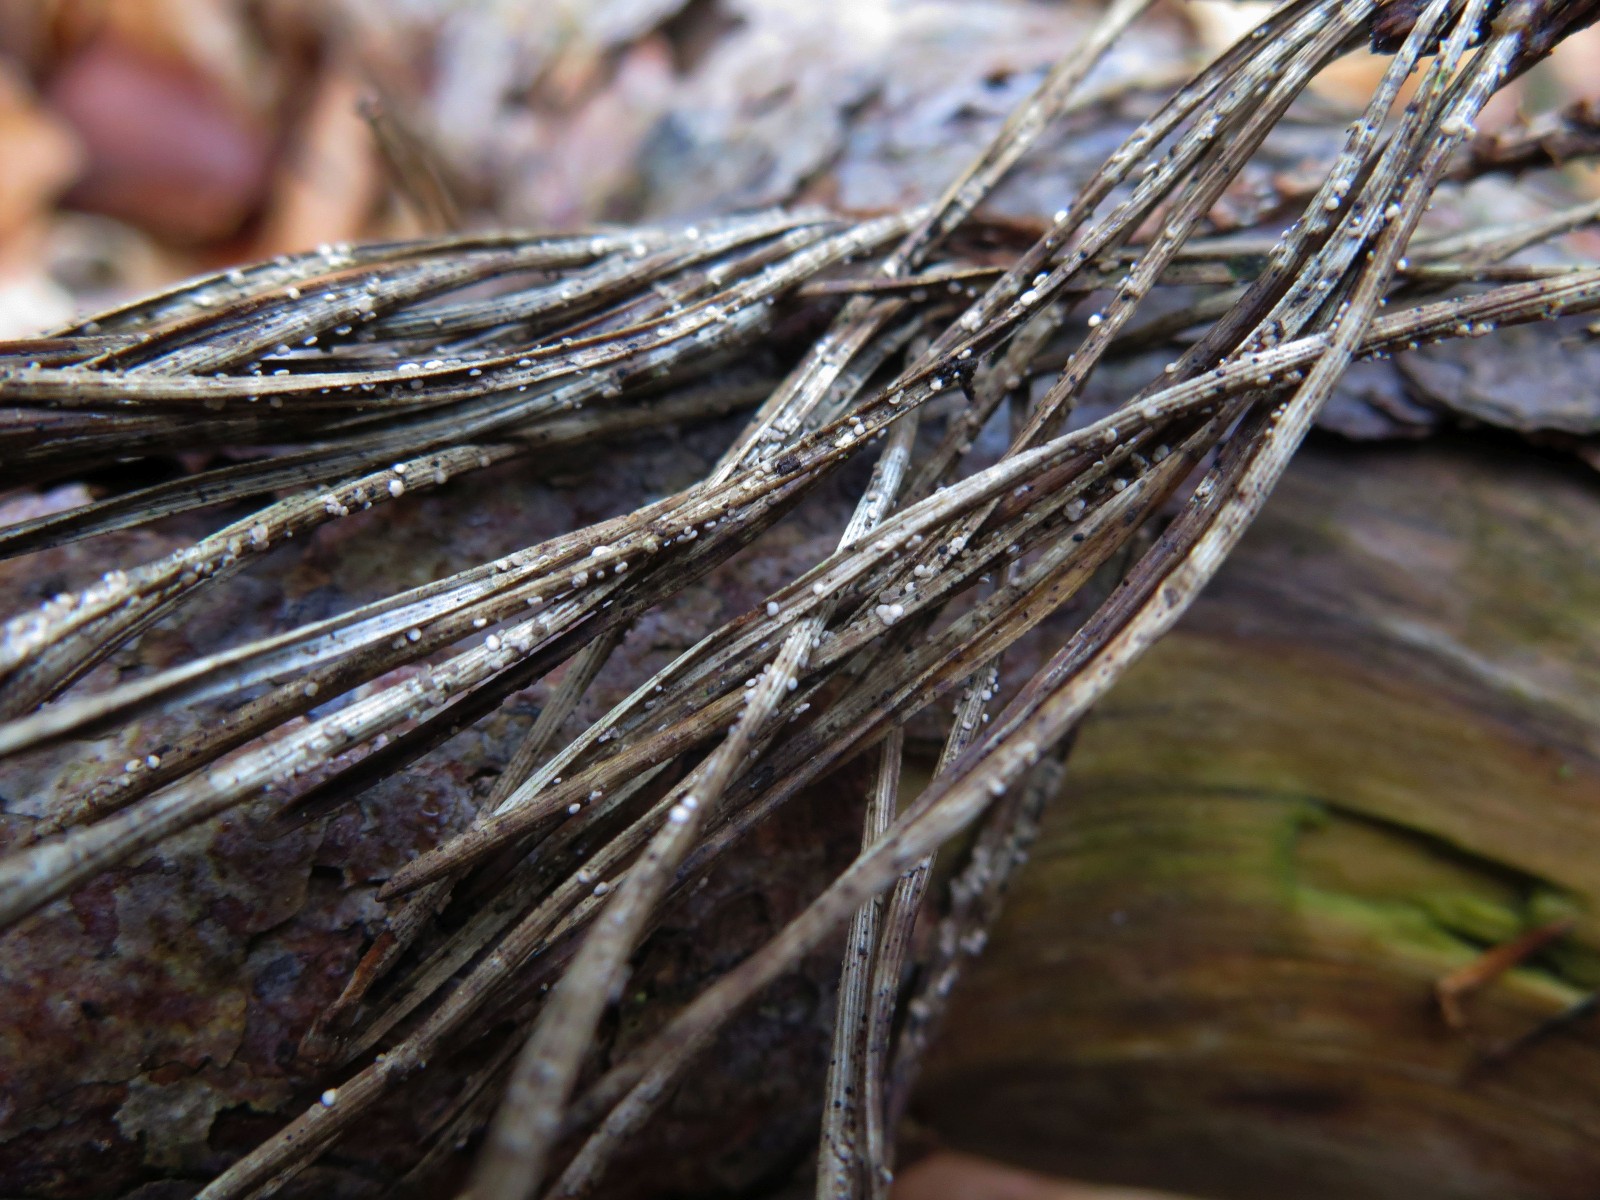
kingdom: Fungi
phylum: Ascomycota
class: Leotiomycetes
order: Helotiales
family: Helotiaceae
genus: Pseudohelotium
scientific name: Pseudohelotium pineti
